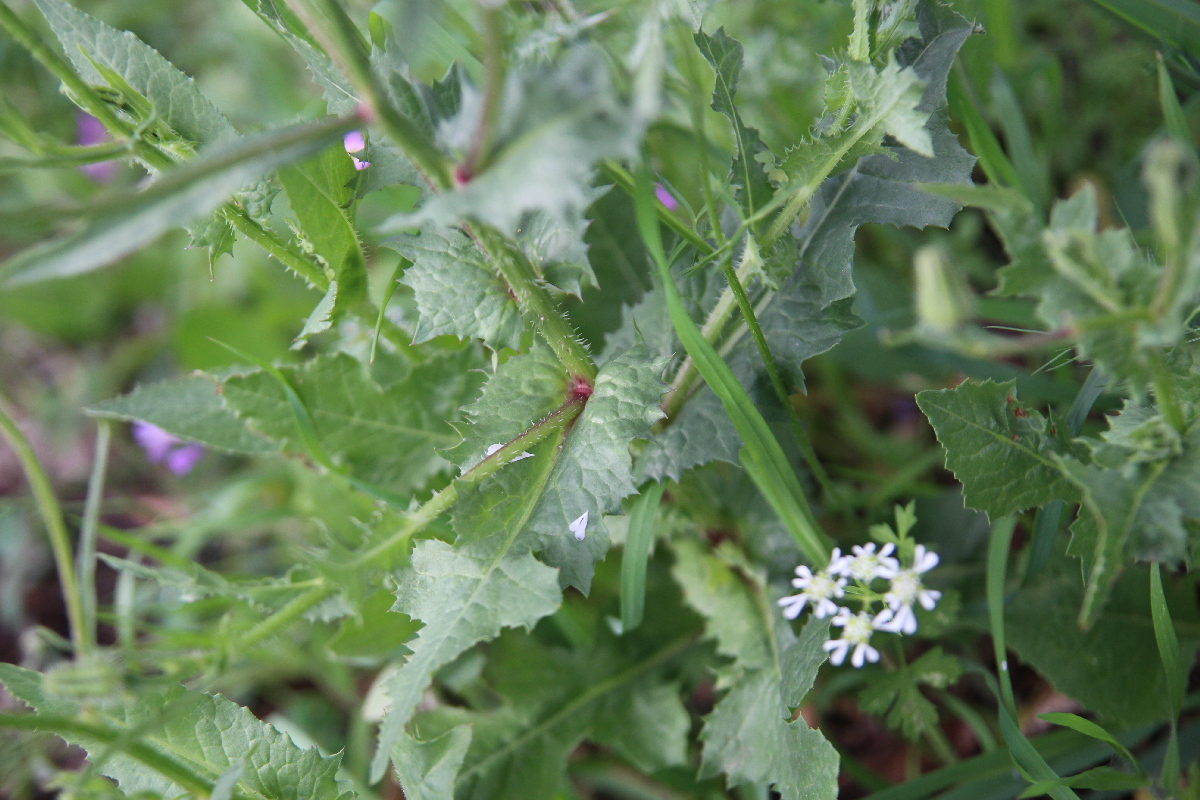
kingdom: Plantae
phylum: Tracheophyta
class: Magnoliopsida
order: Asterales
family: Asteraceae
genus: Sonchus
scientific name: Sonchus asper
